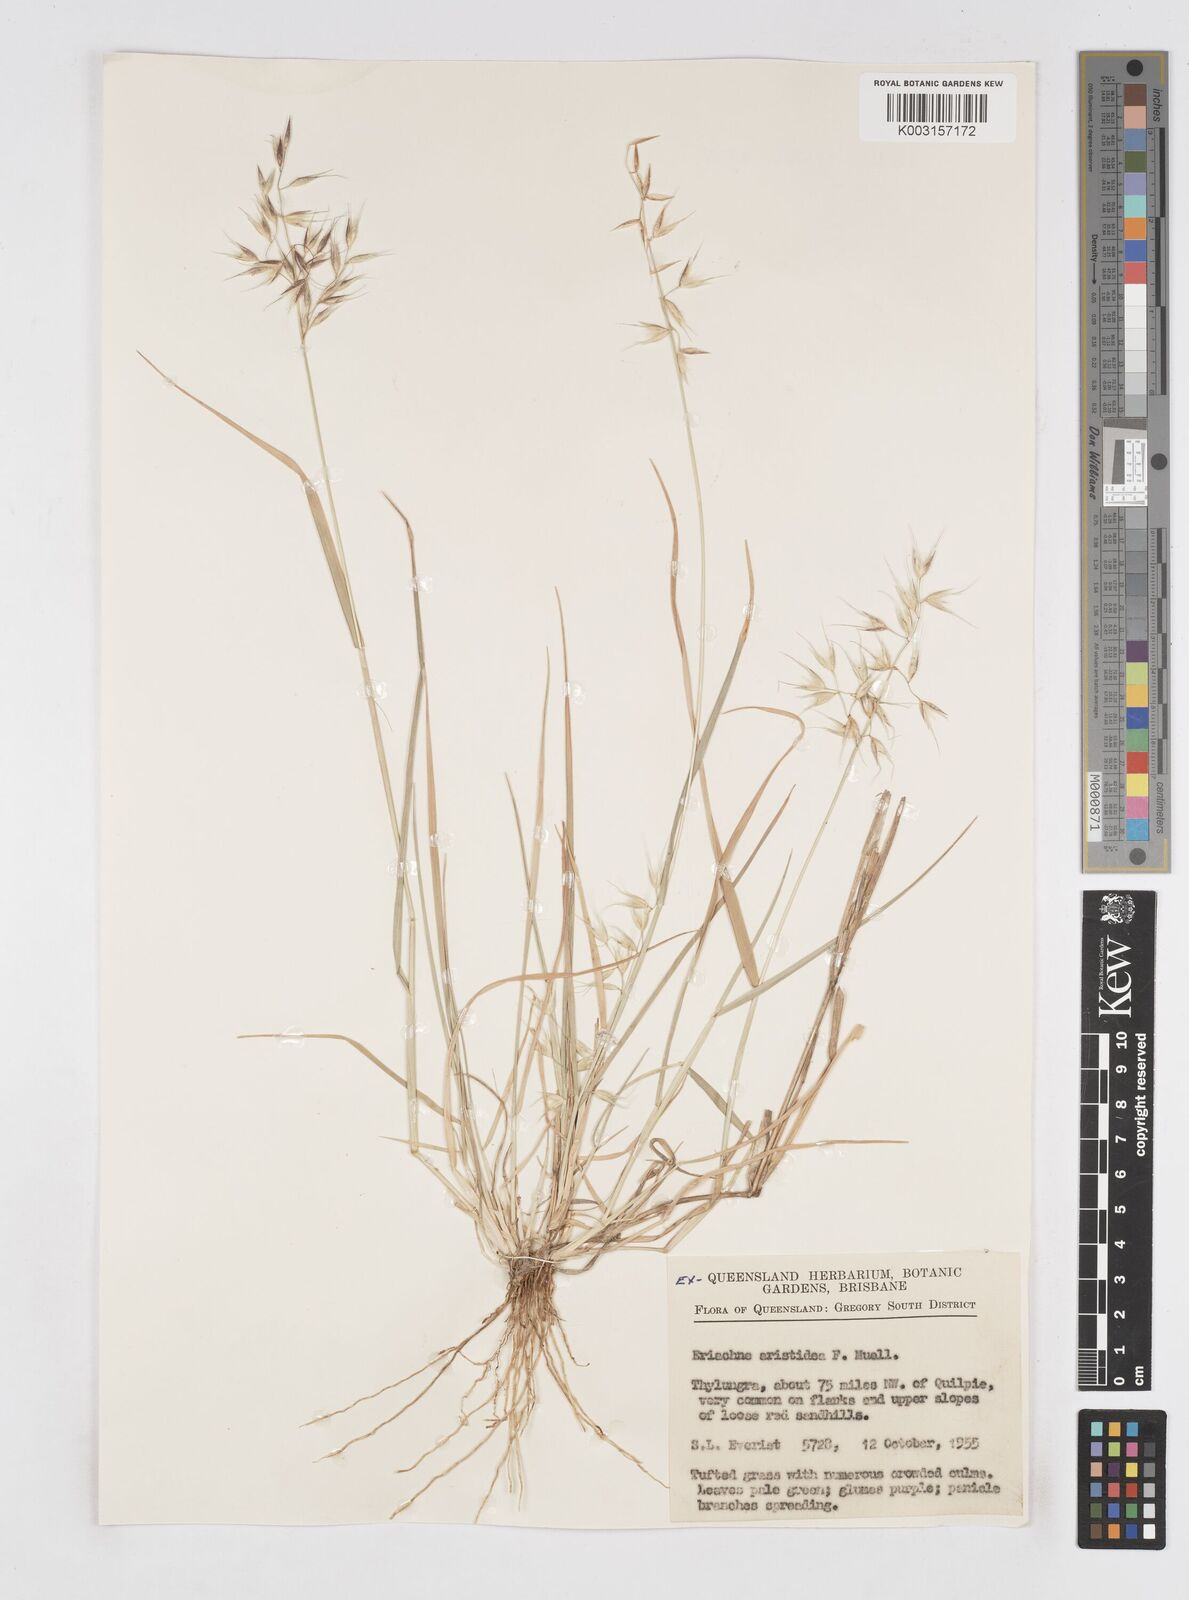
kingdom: Plantae
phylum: Tracheophyta
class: Liliopsida
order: Poales
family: Poaceae
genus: Eriachne
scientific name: Eriachne aristidea
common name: Three-awn wanderrie grass
